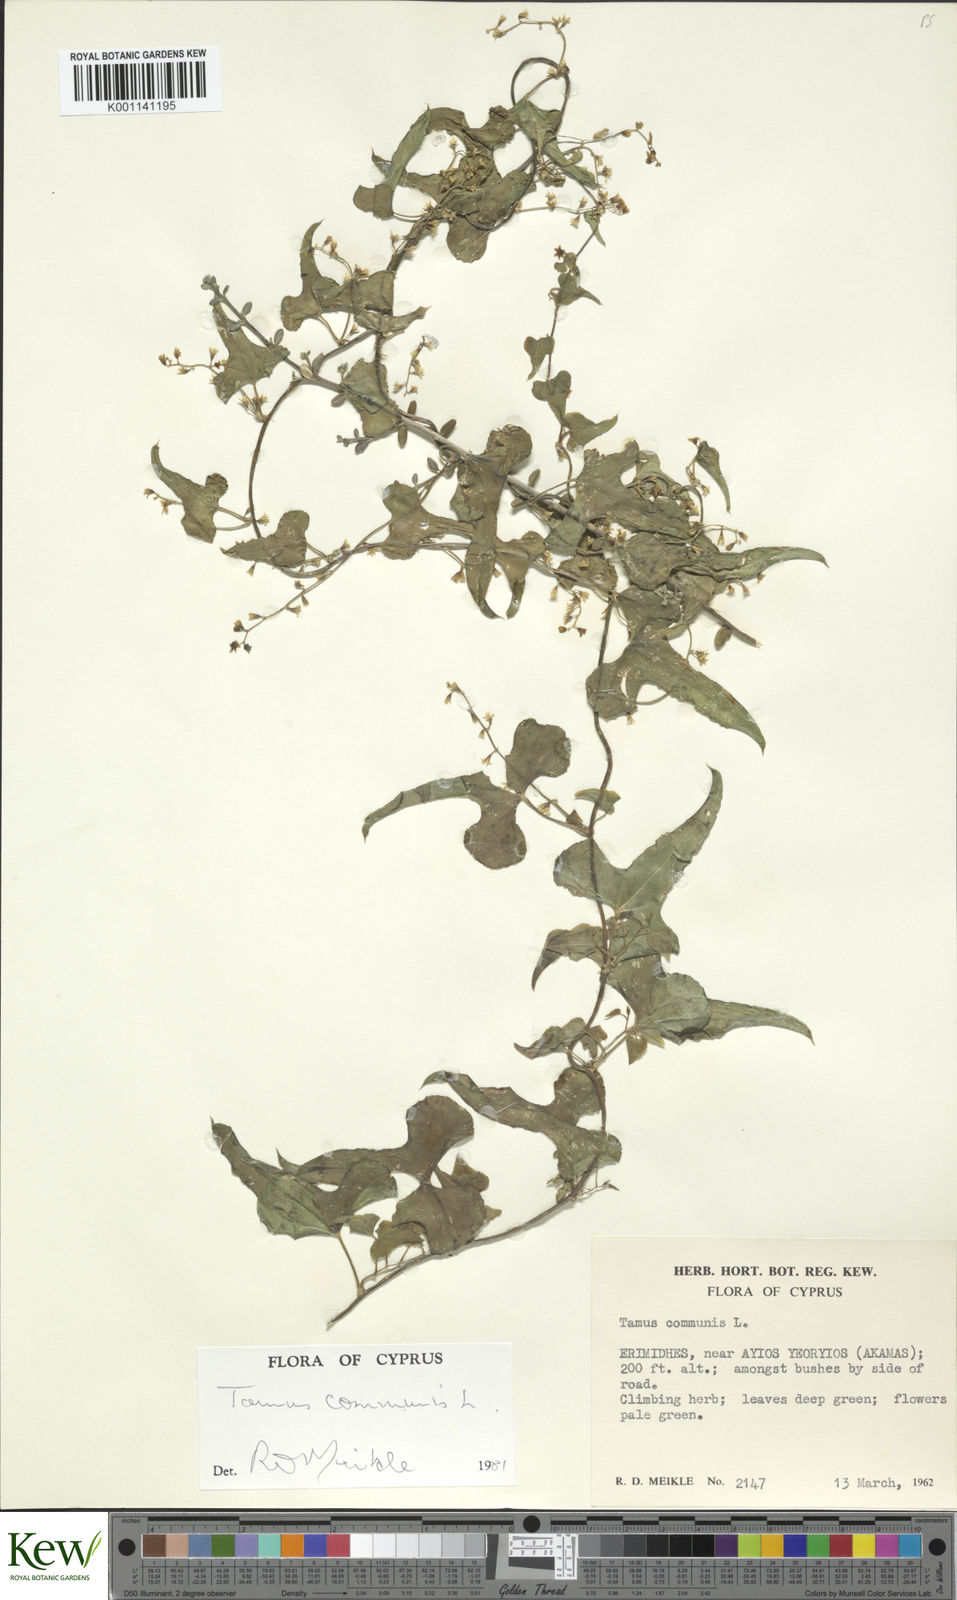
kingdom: Plantae
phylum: Tracheophyta
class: Liliopsida
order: Dioscoreales
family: Dioscoreaceae
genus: Dioscorea
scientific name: Dioscorea communis
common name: Black-bindweed
